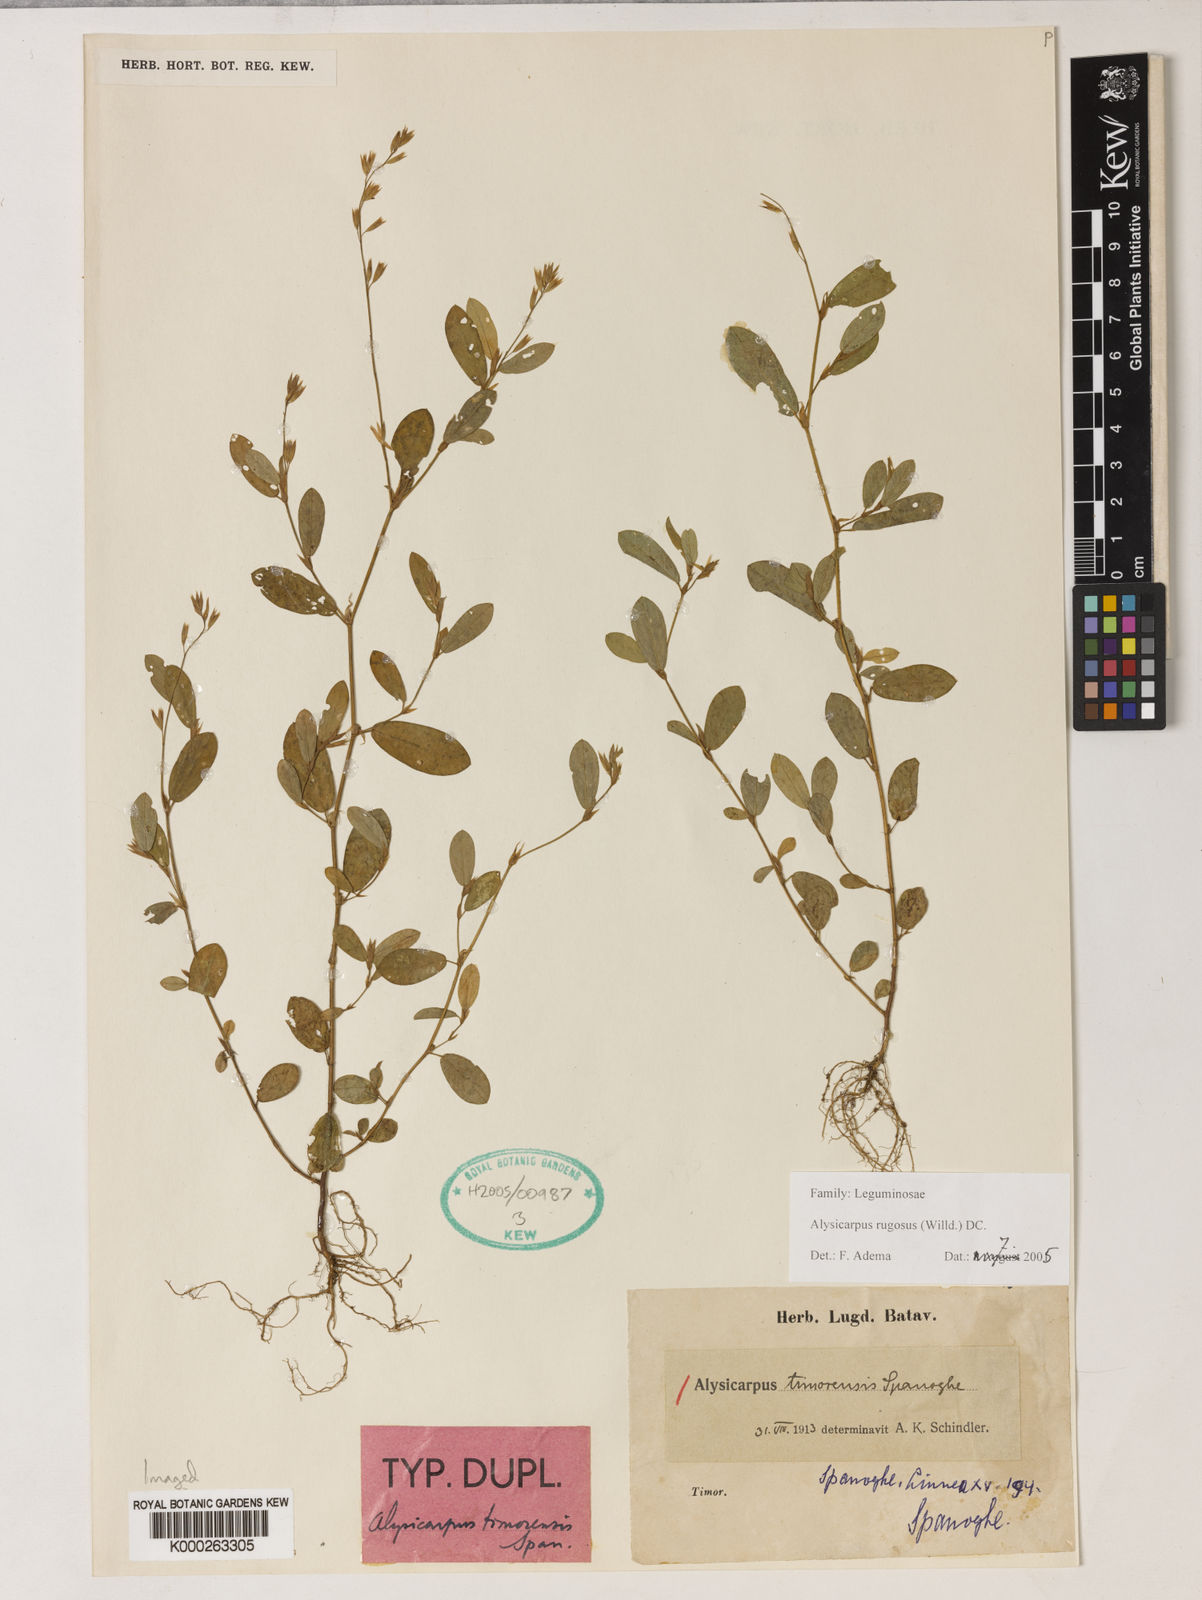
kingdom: Plantae
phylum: Tracheophyta
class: Magnoliopsida
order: Fabales
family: Fabaceae
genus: Alysicarpus
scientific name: Alysicarpus rugosus
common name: Red moneywort
